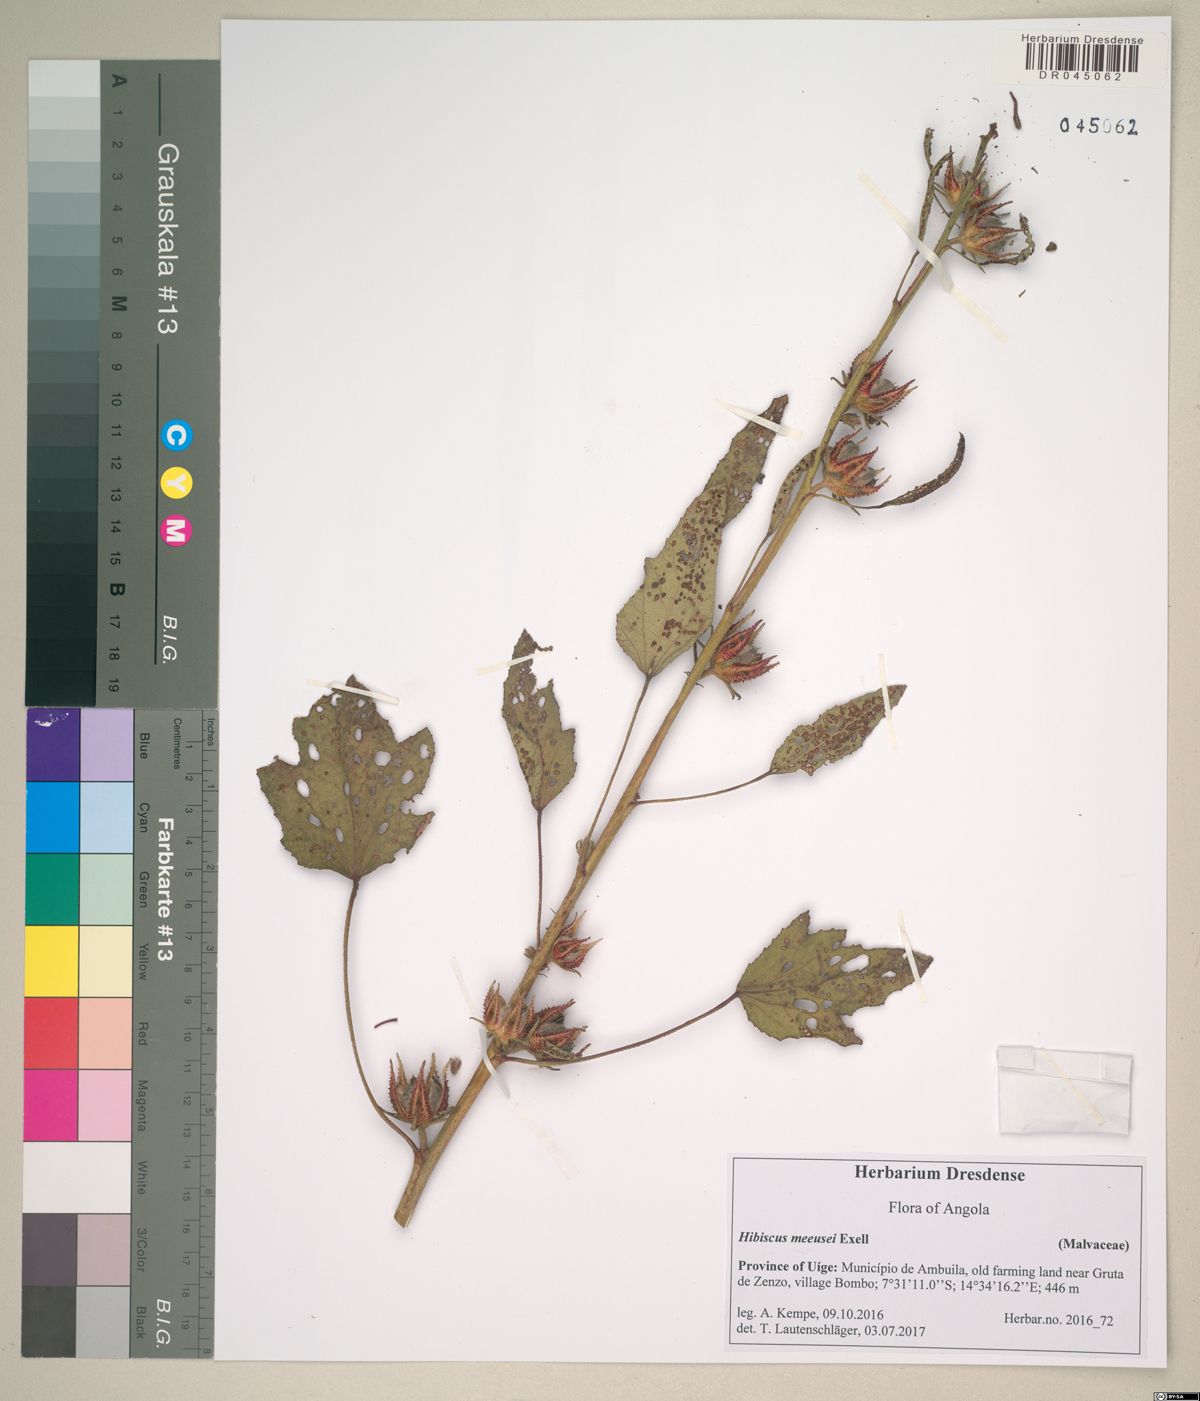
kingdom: Plantae
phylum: Tracheophyta
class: Magnoliopsida
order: Malvales
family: Malvaceae
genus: Hibiscus
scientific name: Hibiscus nigricaulis
